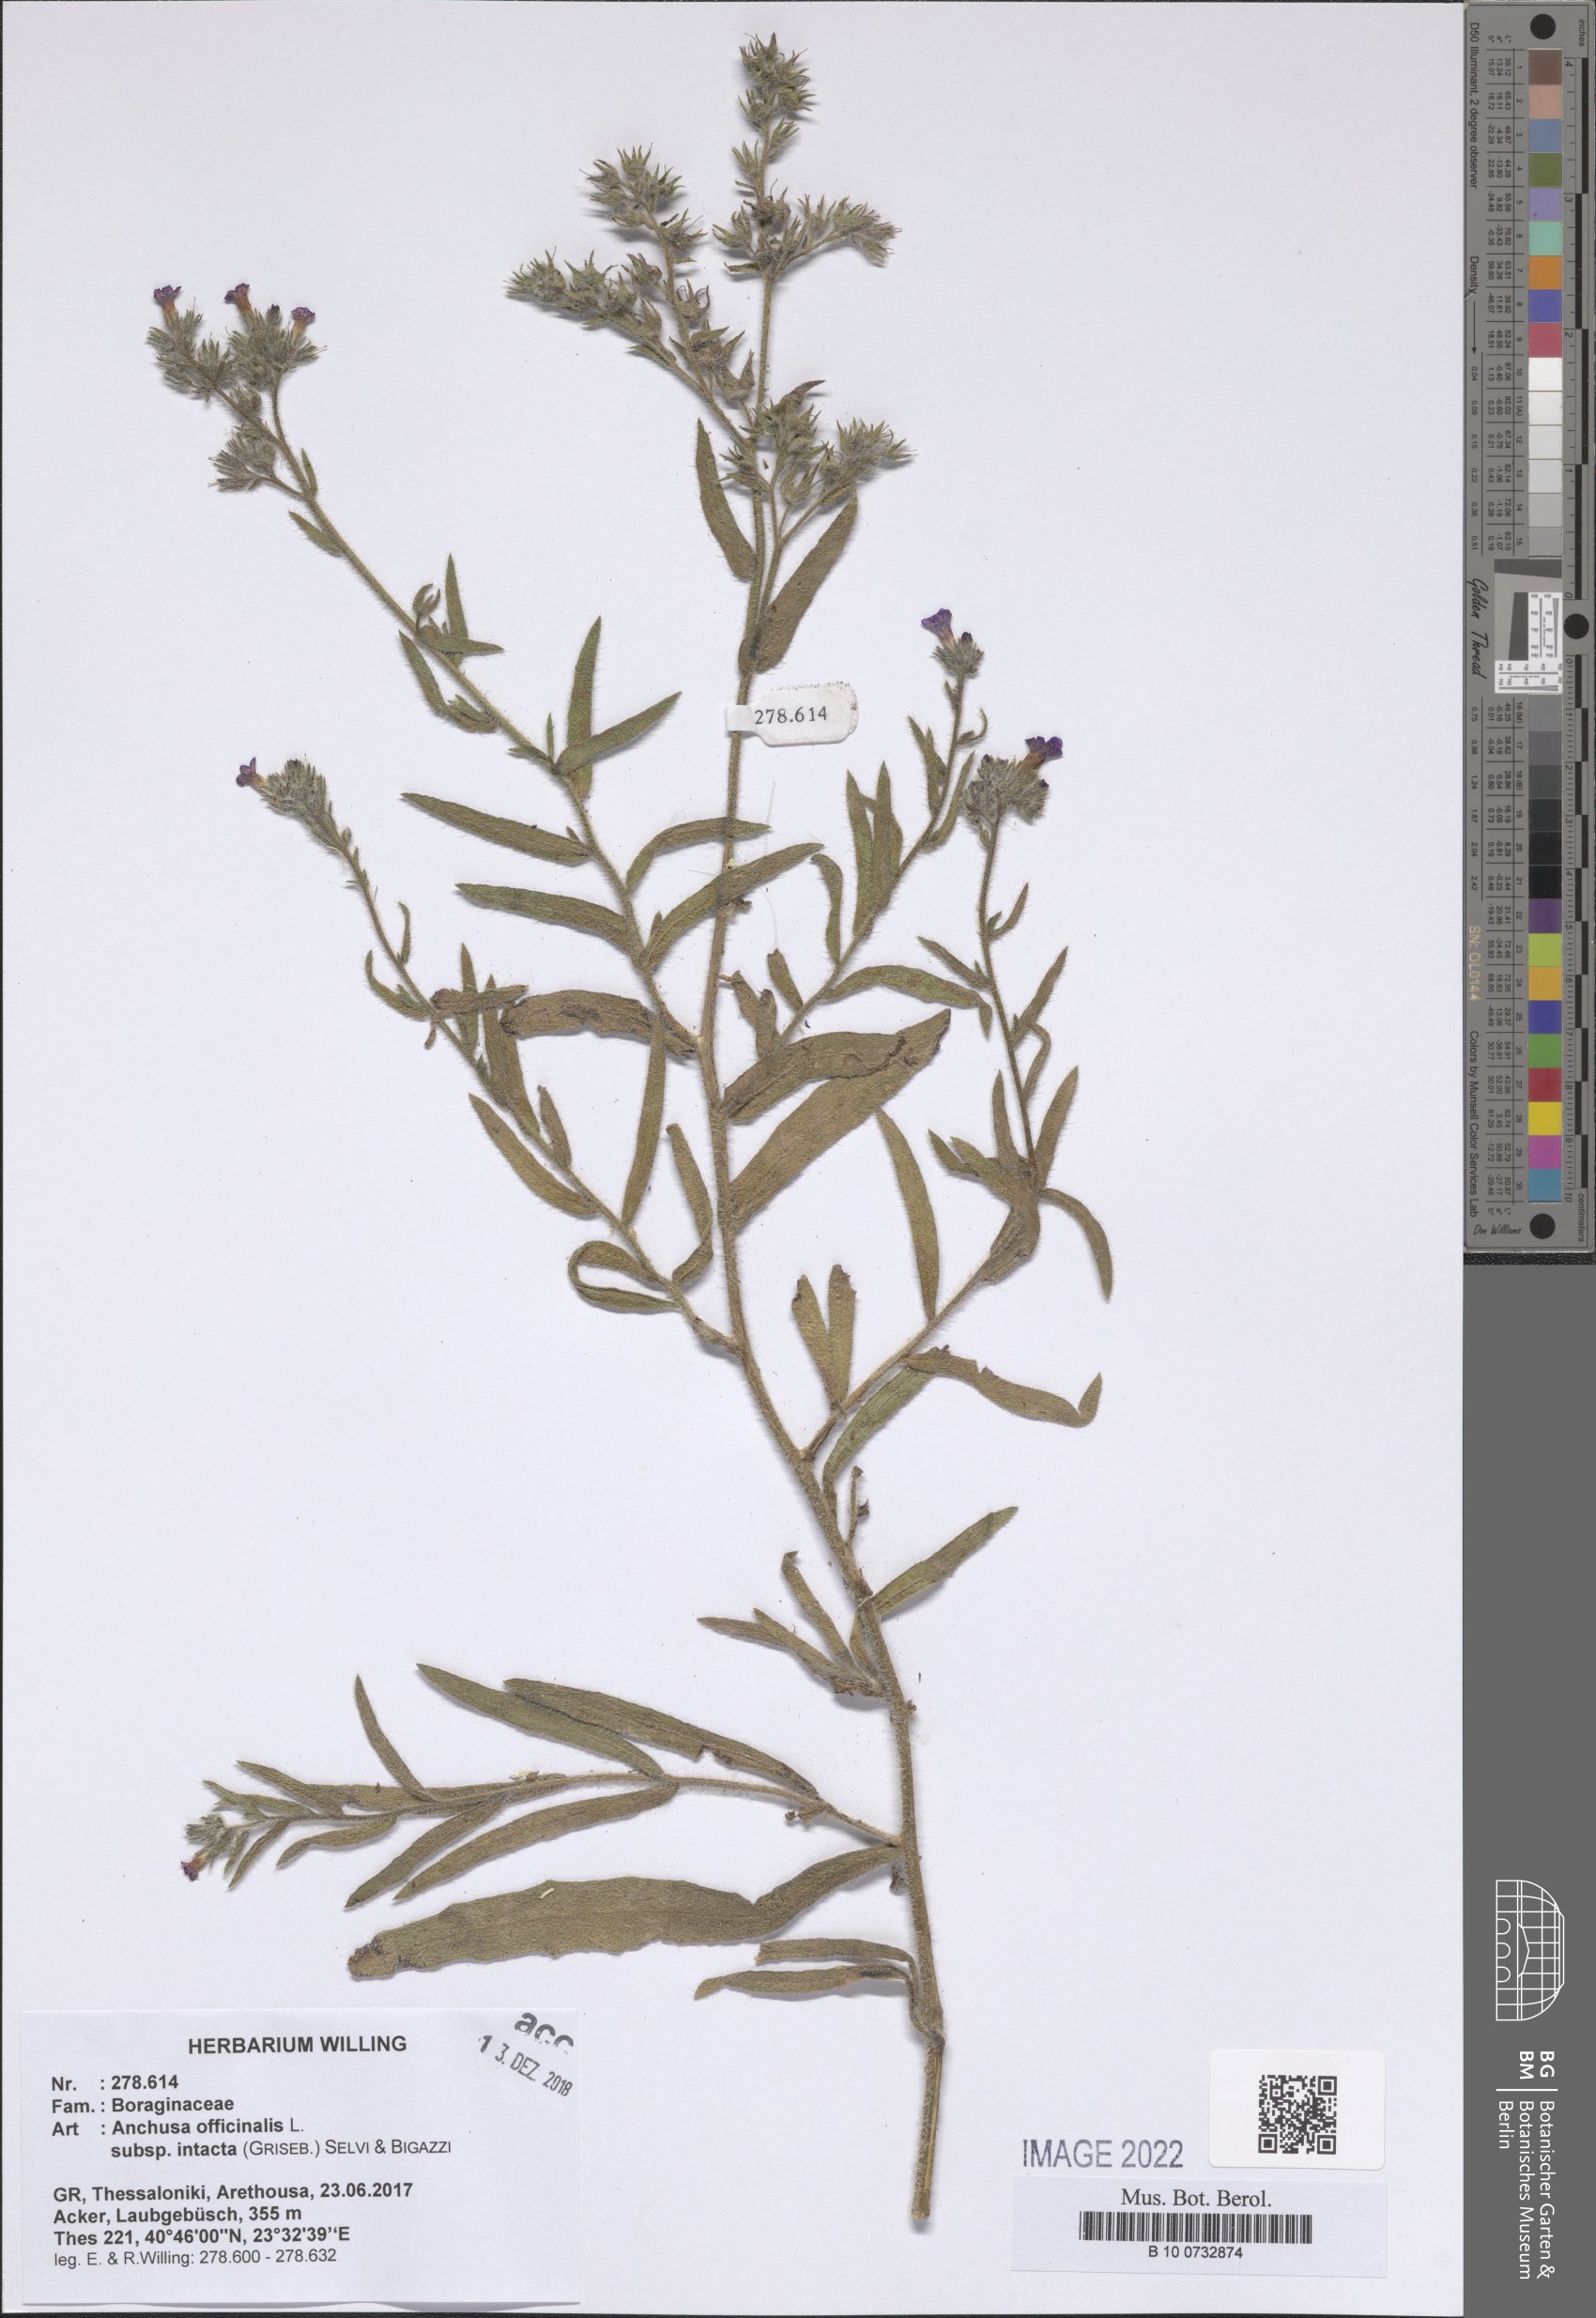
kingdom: Plantae
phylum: Tracheophyta
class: Magnoliopsida
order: Boraginales
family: Boraginaceae
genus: Anchusa
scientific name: Anchusa officinalis
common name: Alkanet
